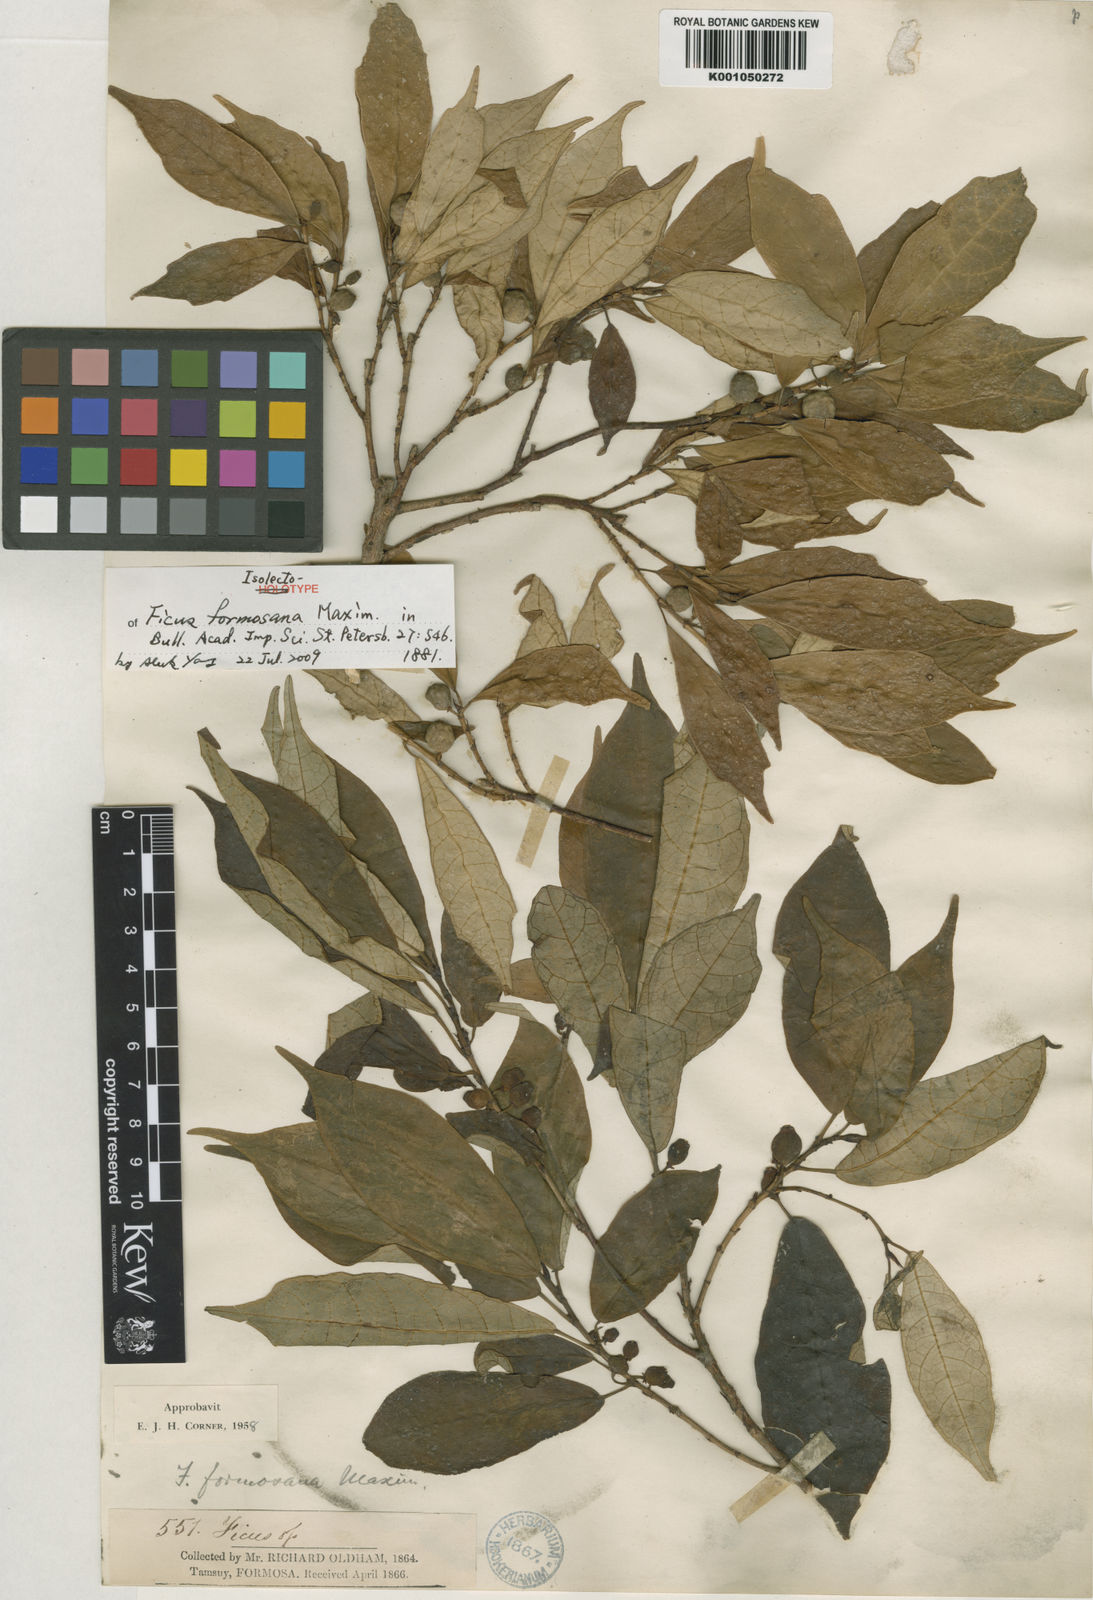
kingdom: Plantae
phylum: Tracheophyta
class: Magnoliopsida
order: Rosales
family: Moraceae
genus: Ficus
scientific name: Ficus formosana
